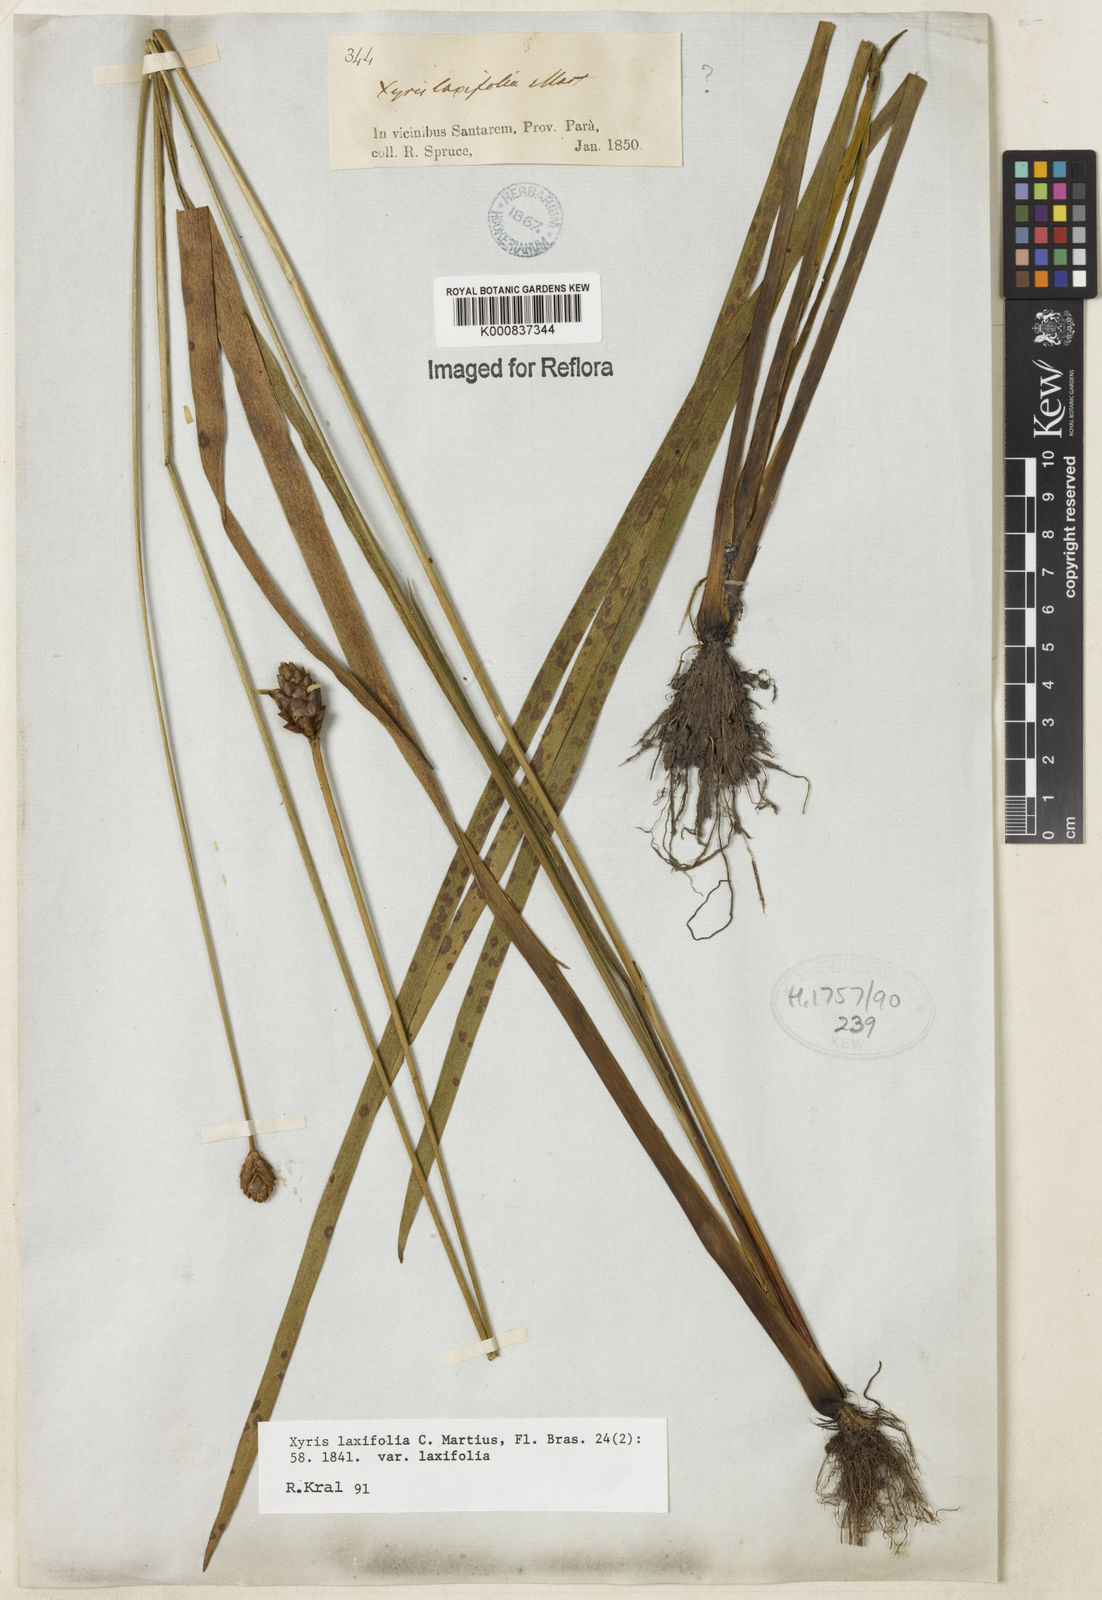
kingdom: Plantae
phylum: Tracheophyta
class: Liliopsida
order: Poales
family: Xyridaceae
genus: Xyris
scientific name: Xyris laxifolia
